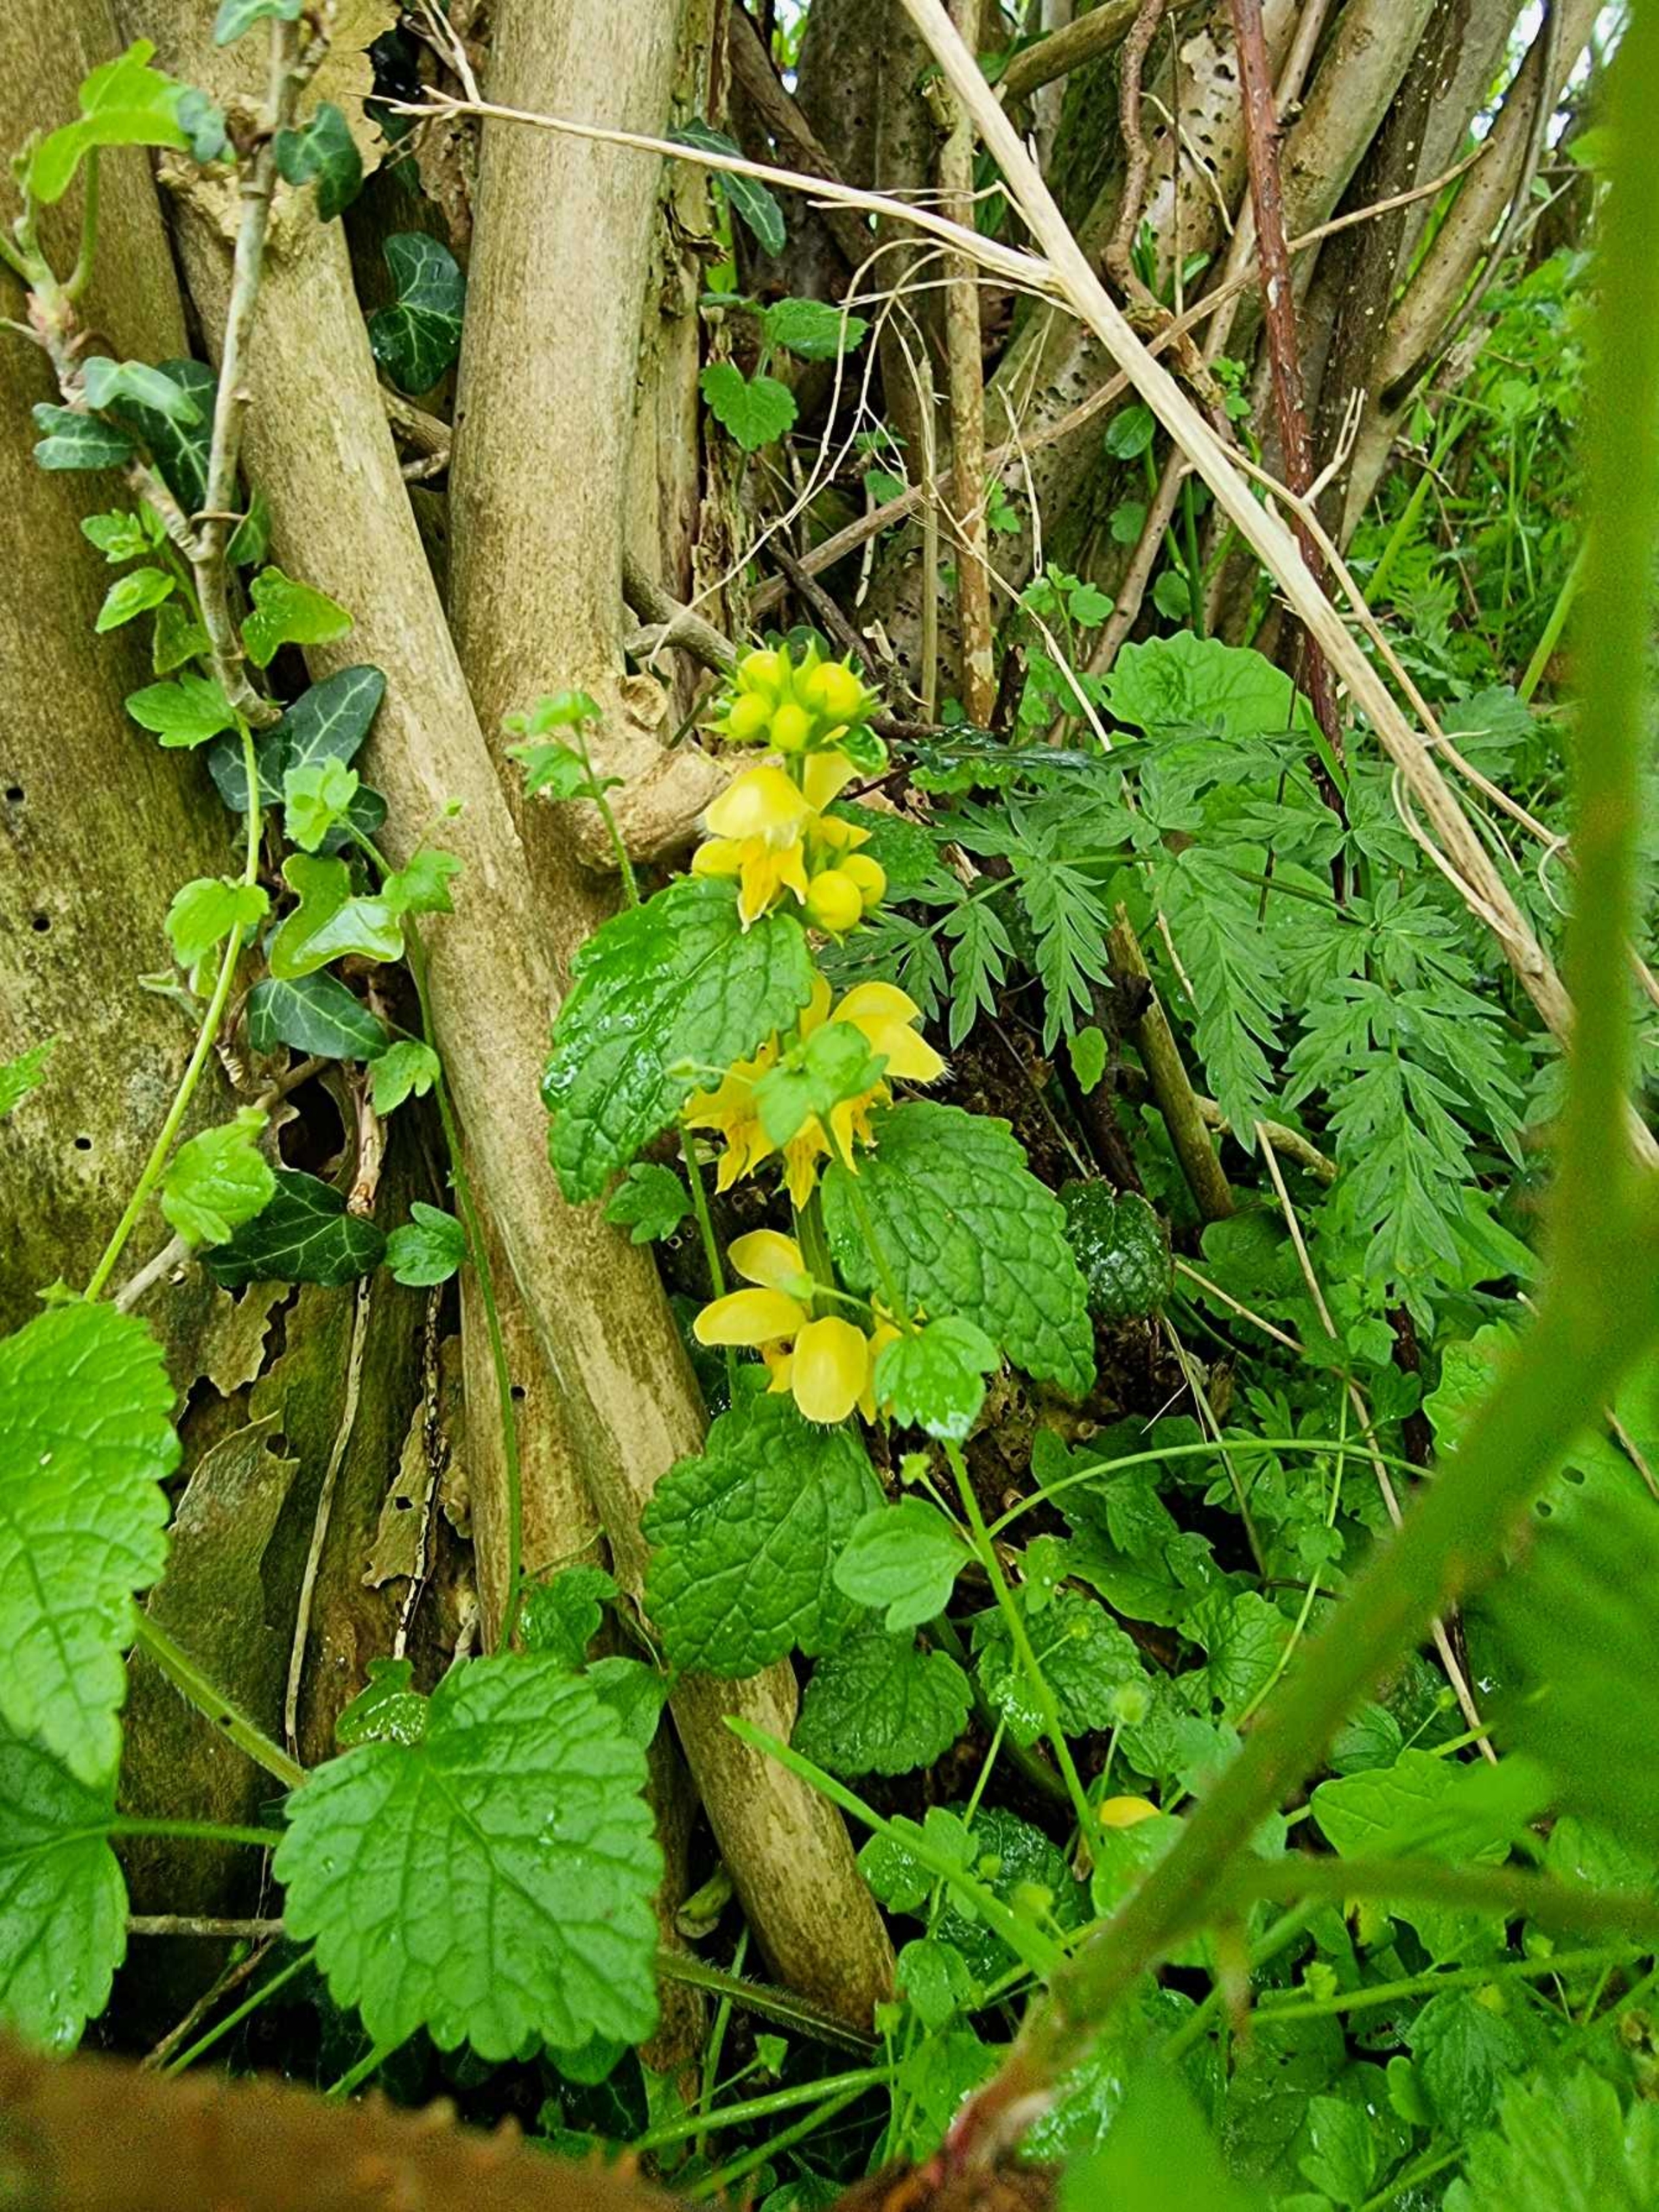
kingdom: Plantae
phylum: Tracheophyta
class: Magnoliopsida
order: Lamiales
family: Lamiaceae
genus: Lamium
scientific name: Lamium galeobdolon
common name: Guldnælde
